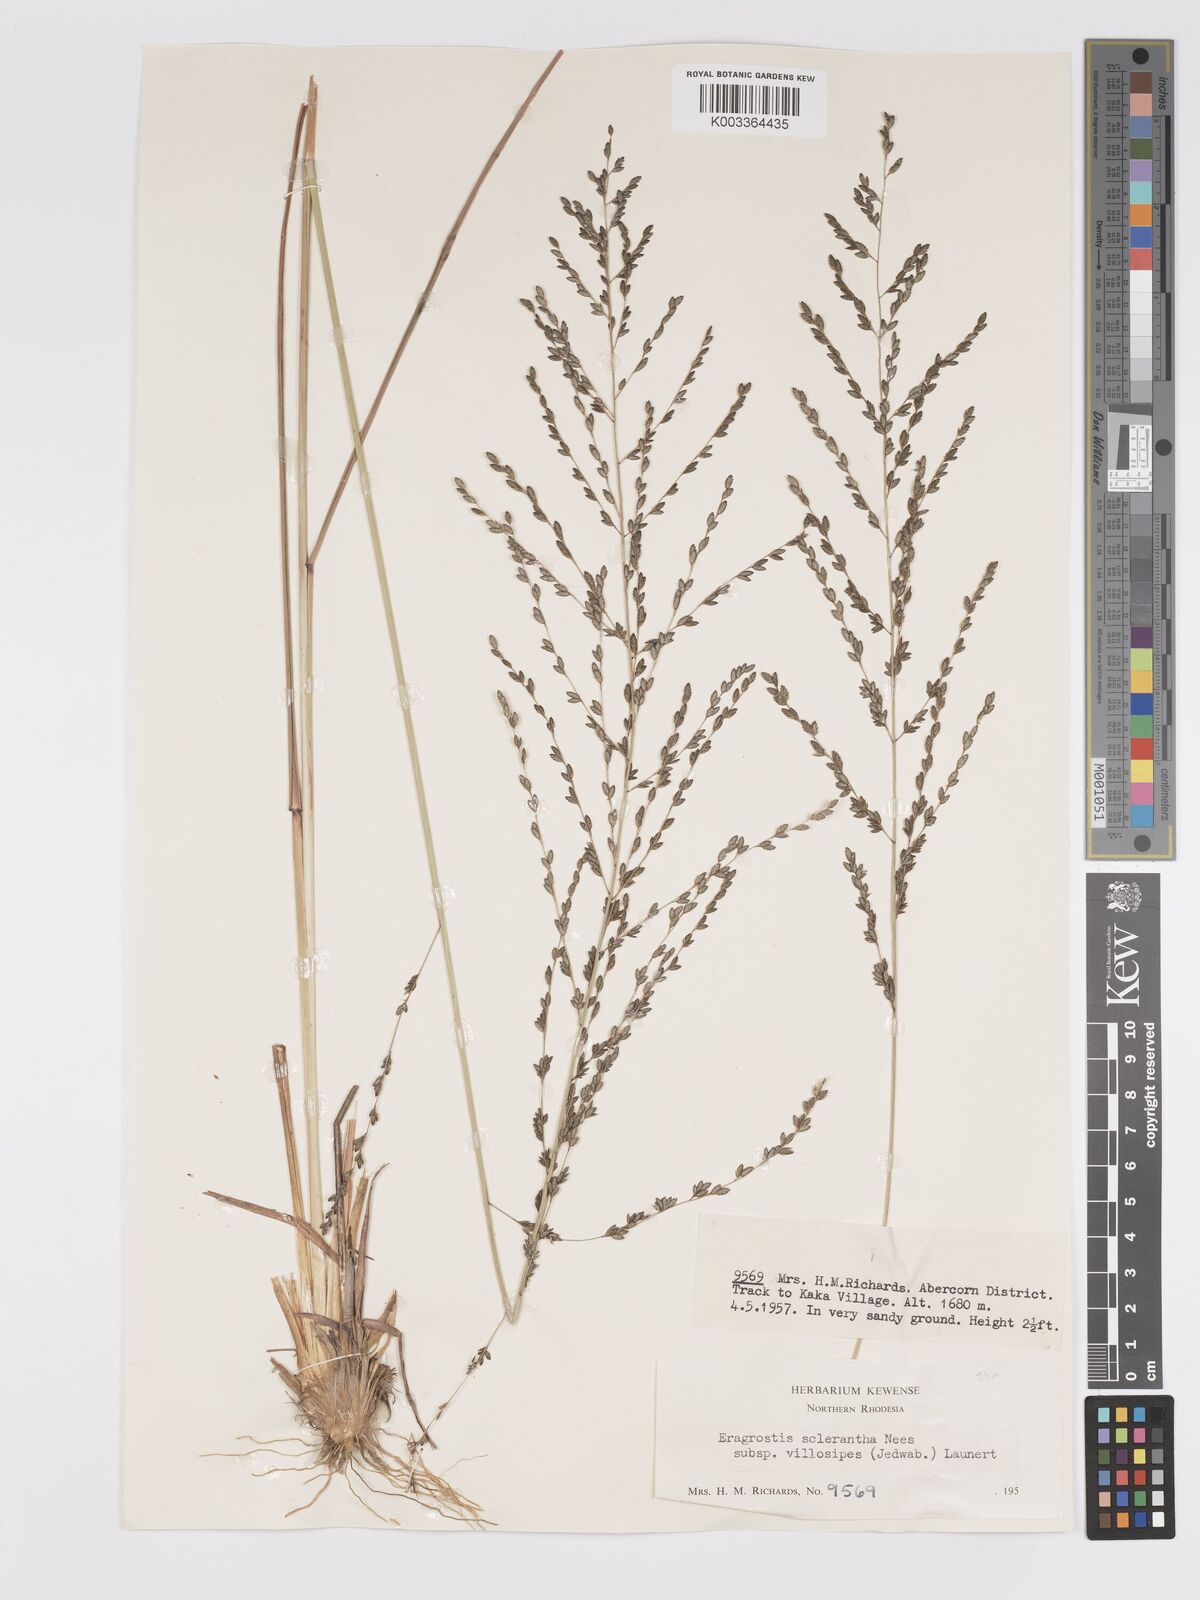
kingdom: Plantae
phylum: Tracheophyta
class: Liliopsida
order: Poales
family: Poaceae
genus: Eragrostis
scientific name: Eragrostis sclerantha
